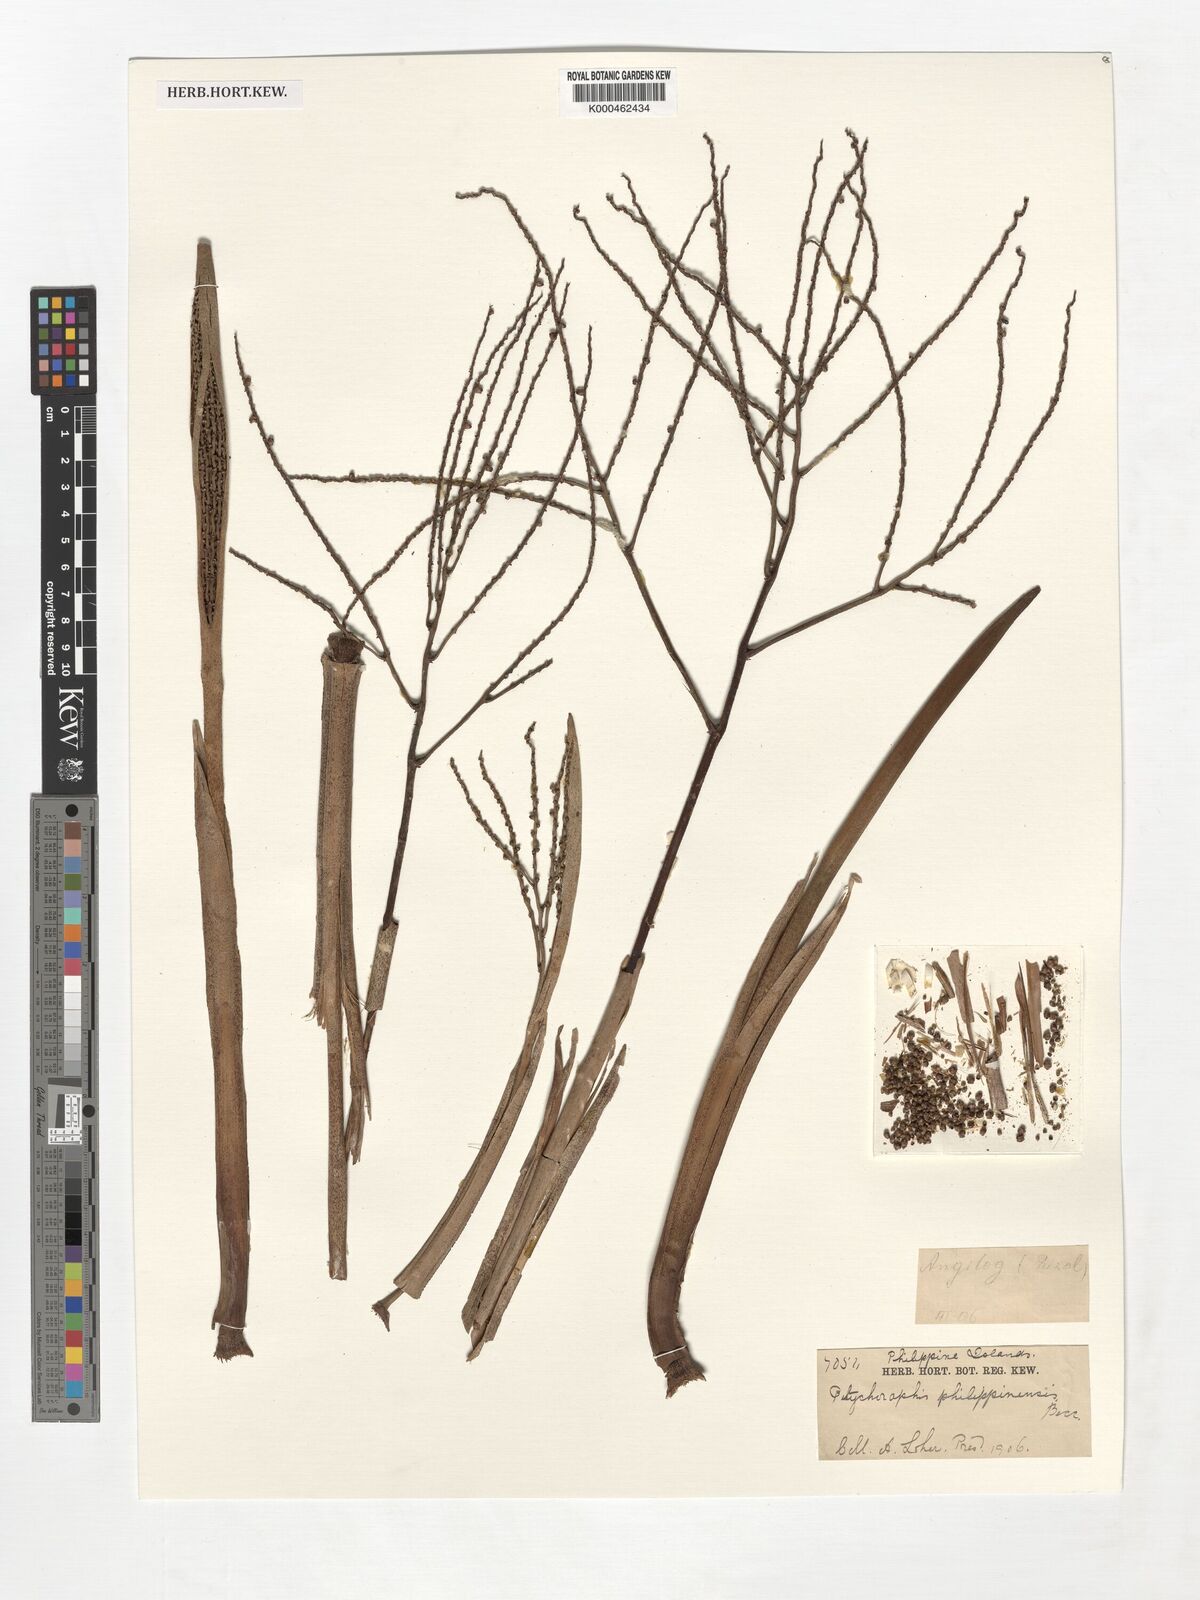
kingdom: Plantae
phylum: Tracheophyta
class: Liliopsida
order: Arecales
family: Arecaceae
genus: Heterospathe
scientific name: Heterospathe philippinensis
